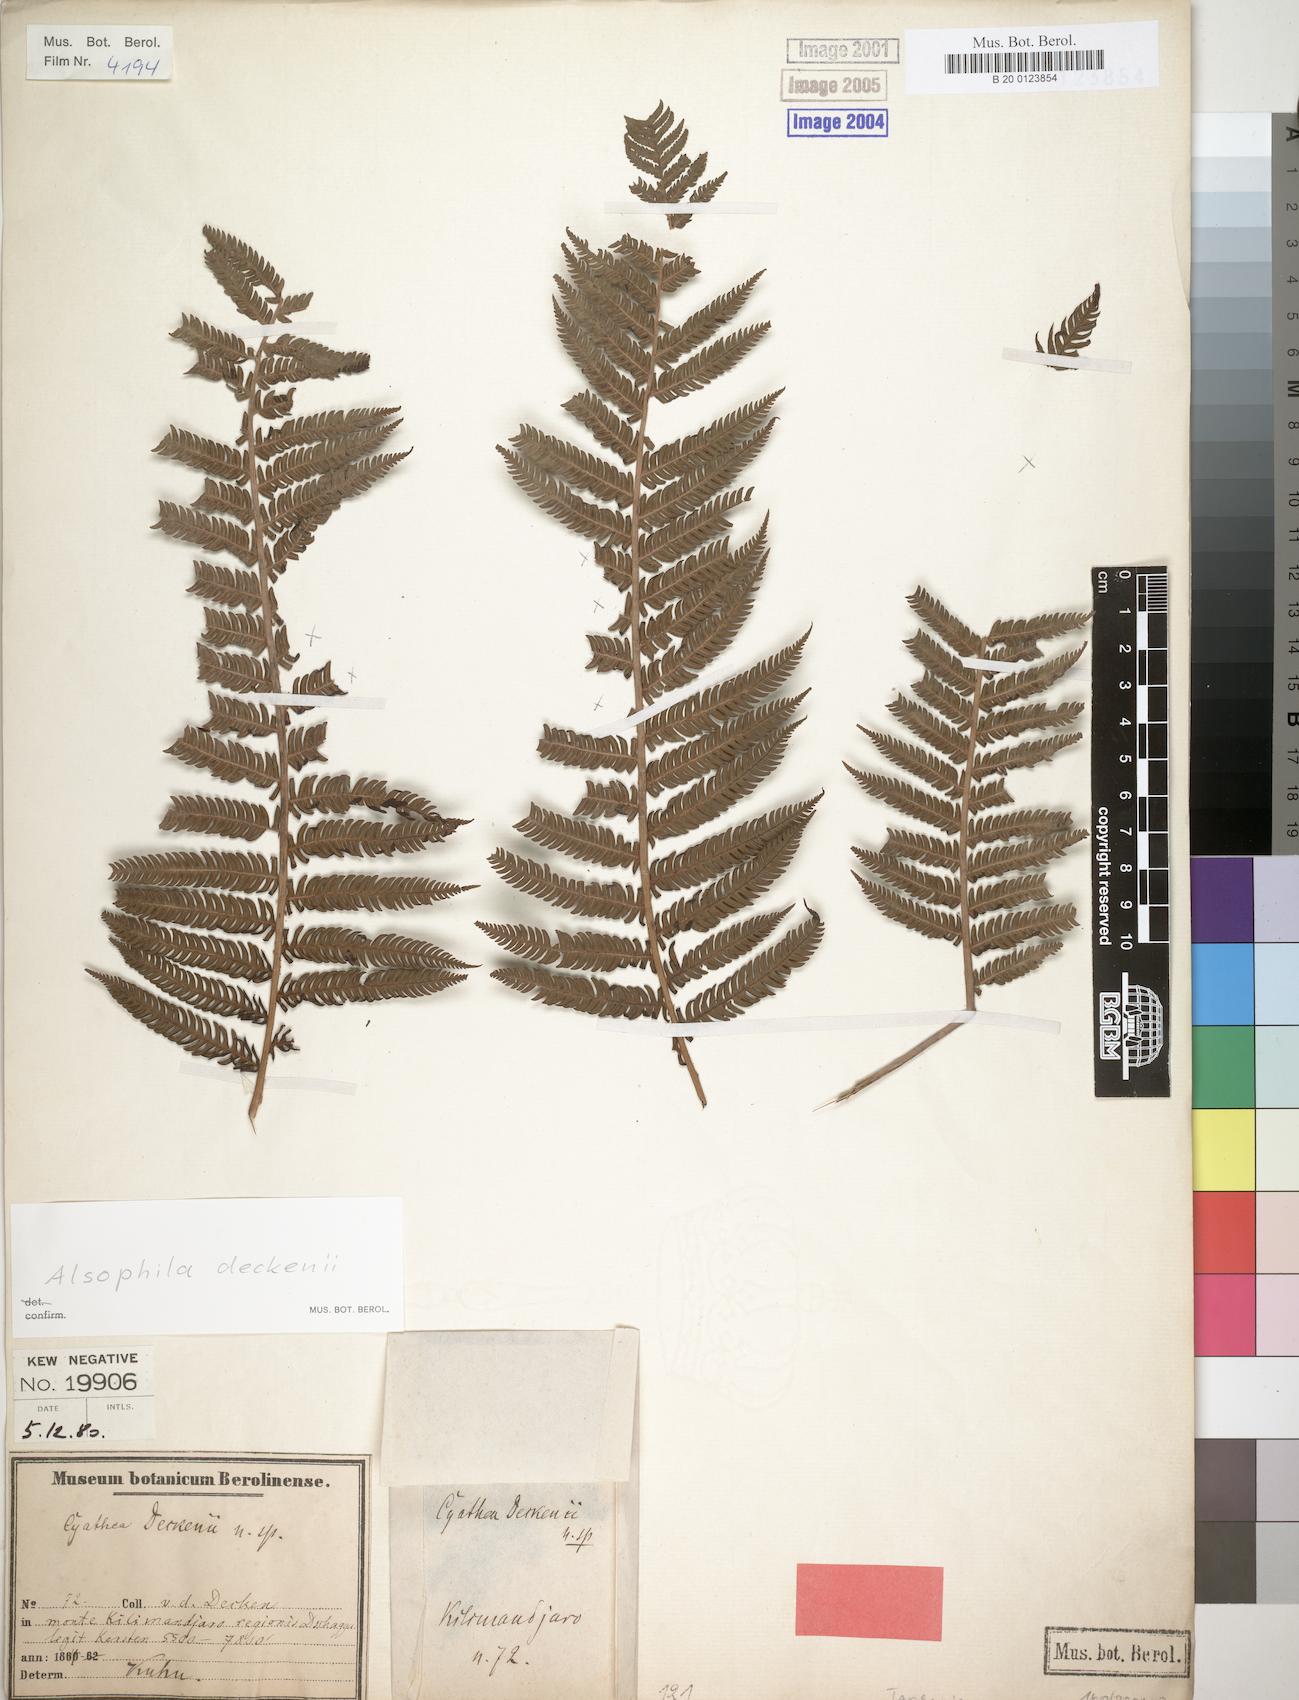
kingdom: Plantae
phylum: Tracheophyta
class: Polypodiopsida
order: Cyatheales
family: Cyatheaceae
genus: Alsophila
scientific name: Alsophila deckenii
